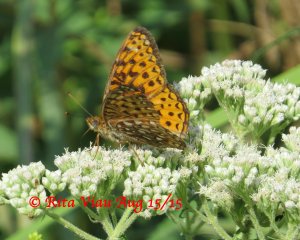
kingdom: Animalia
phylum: Arthropoda
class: Insecta
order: Lepidoptera
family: Nymphalidae
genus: Speyeria
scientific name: Speyeria atlantis
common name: Atlantis Fritillary
